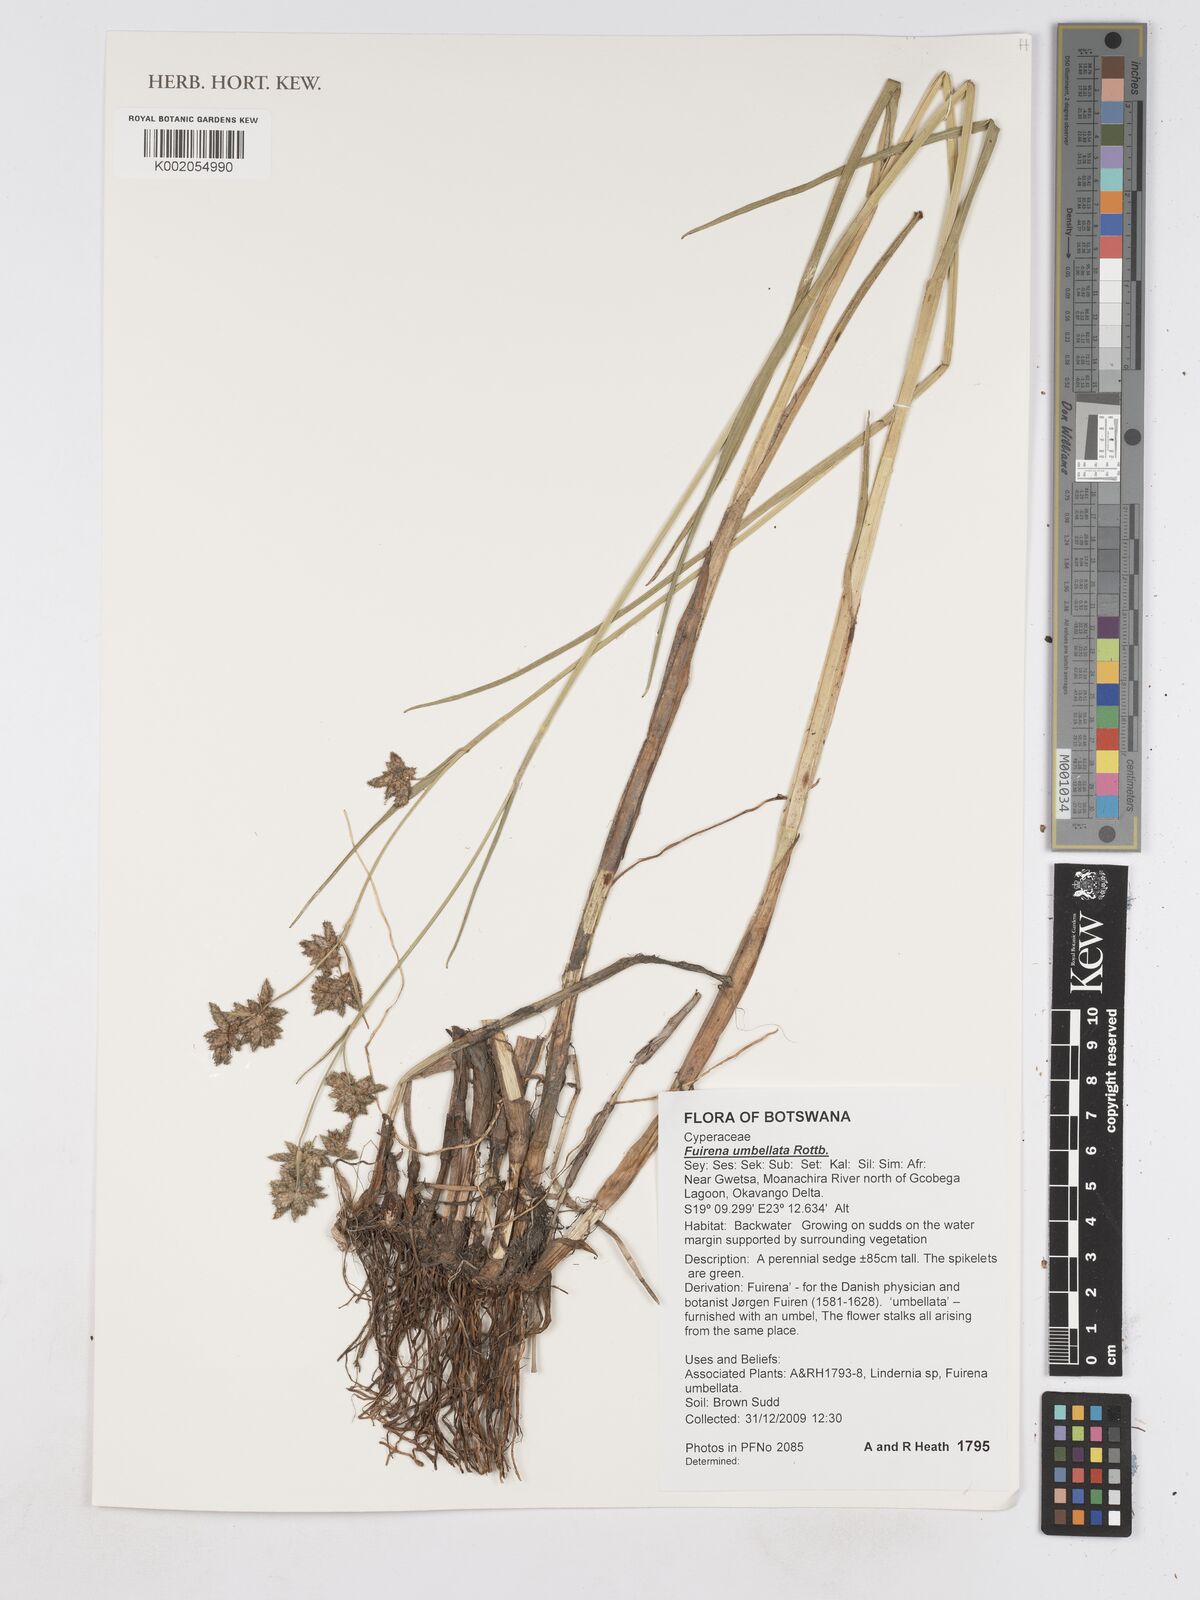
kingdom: Plantae
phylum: Tracheophyta
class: Liliopsida
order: Poales
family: Cyperaceae
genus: Fuirena
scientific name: Fuirena umbellata
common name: Yefen
